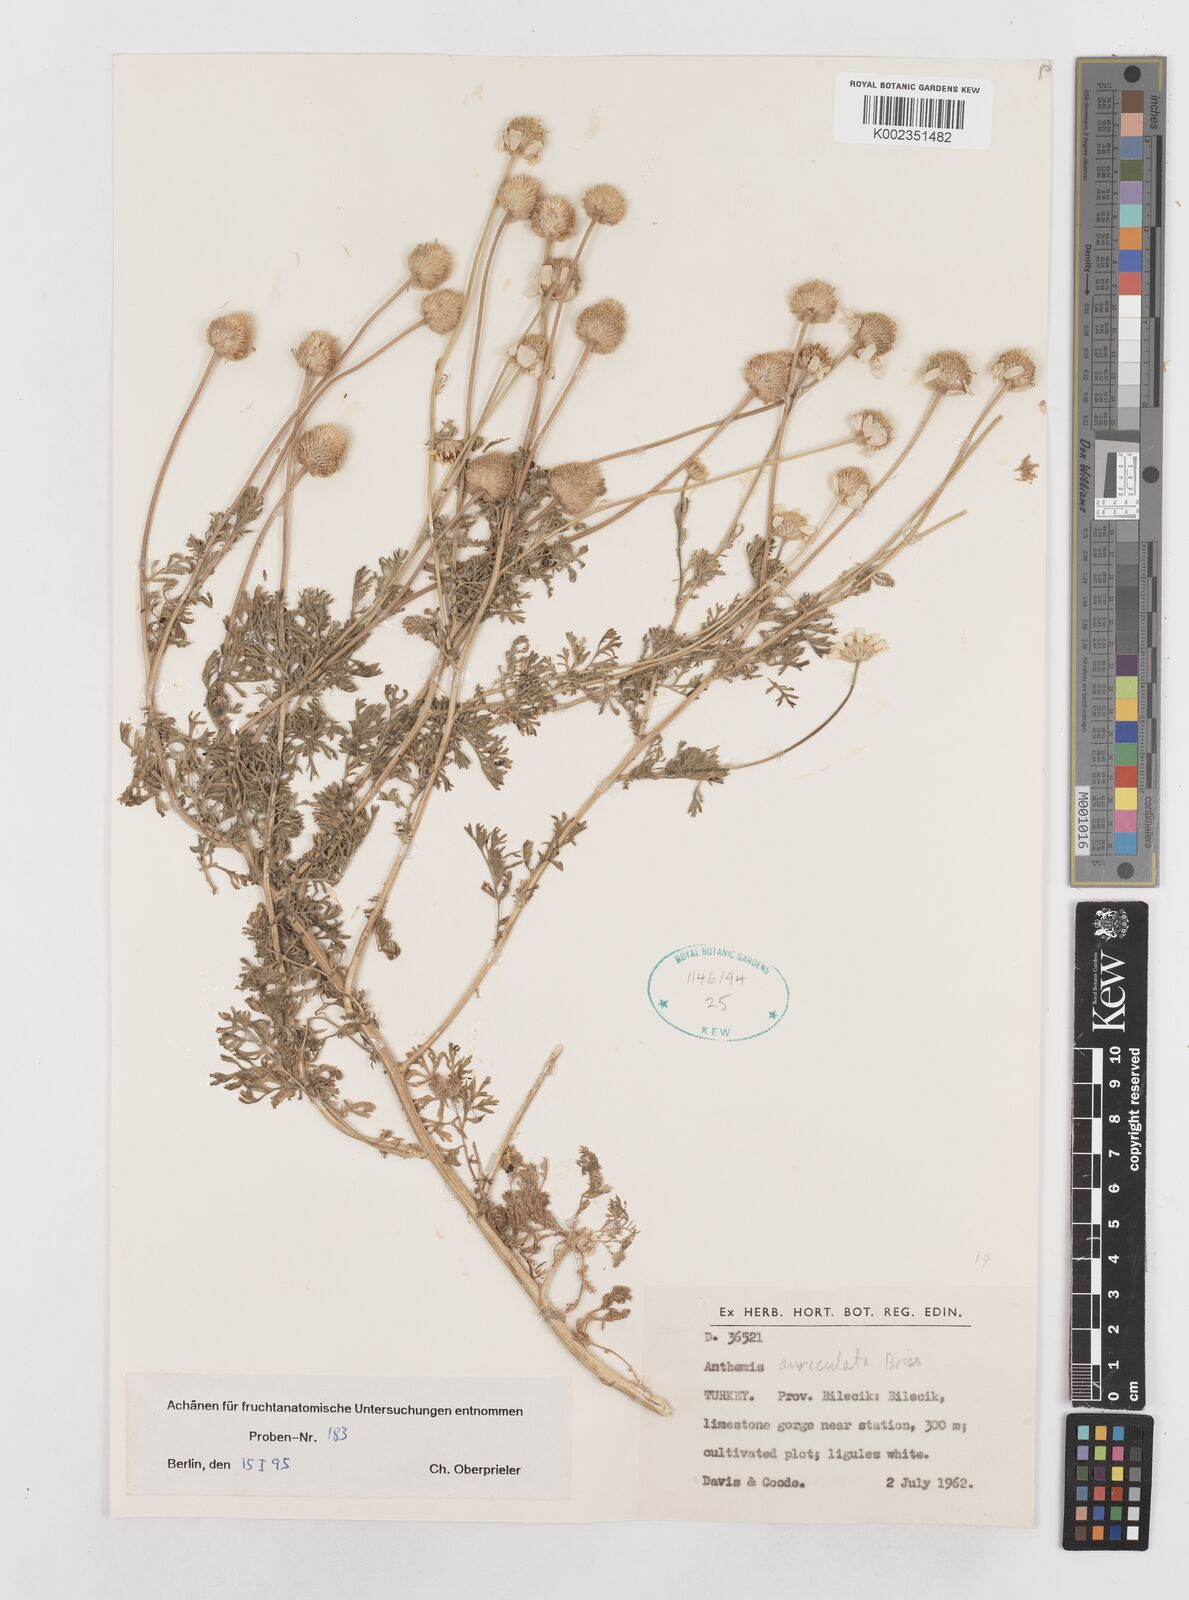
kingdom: Plantae
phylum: Tracheophyta
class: Magnoliopsida
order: Asterales
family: Asteraceae
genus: Anthemis
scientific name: Anthemis auriculata
